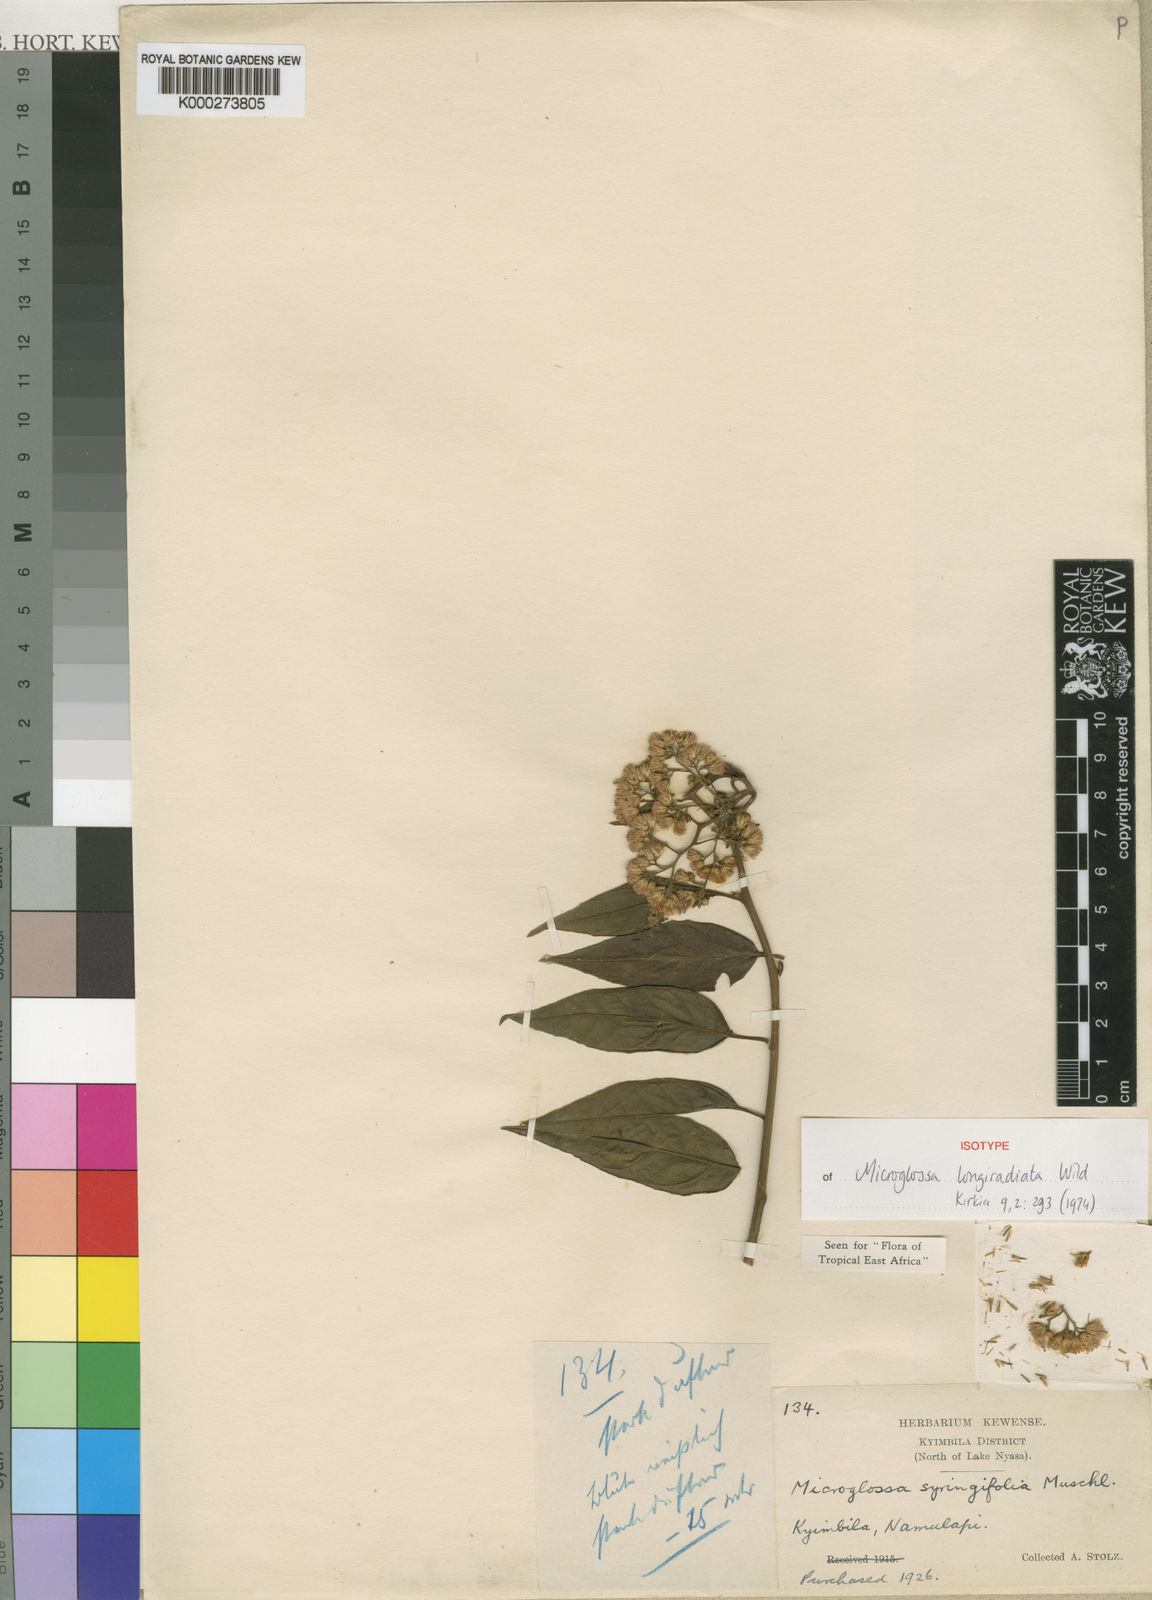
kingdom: Plantae
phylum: Tracheophyta
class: Magnoliopsida
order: Asterales
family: Asteraceae
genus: Microglossa
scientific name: Microglossa densiflora
